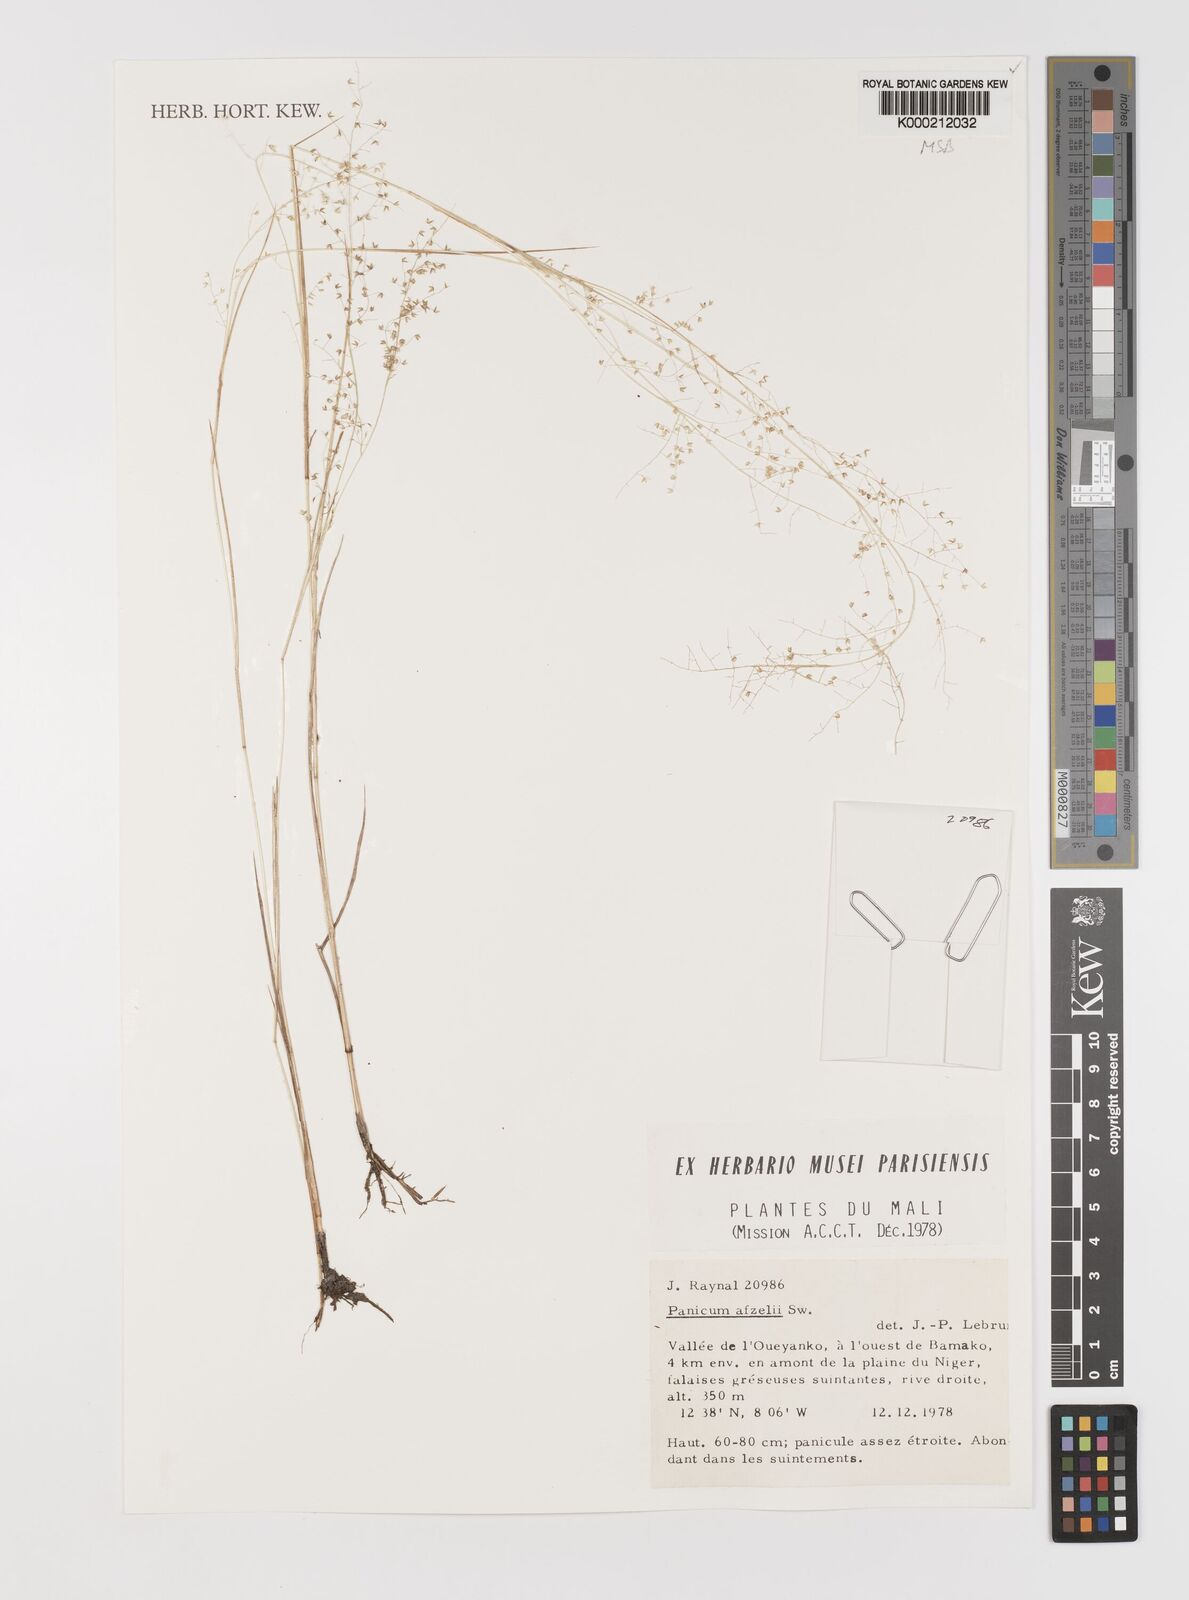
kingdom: Plantae
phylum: Tracheophyta
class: Liliopsida
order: Poales
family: Poaceae
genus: Panicum
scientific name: Panicum afzelii
